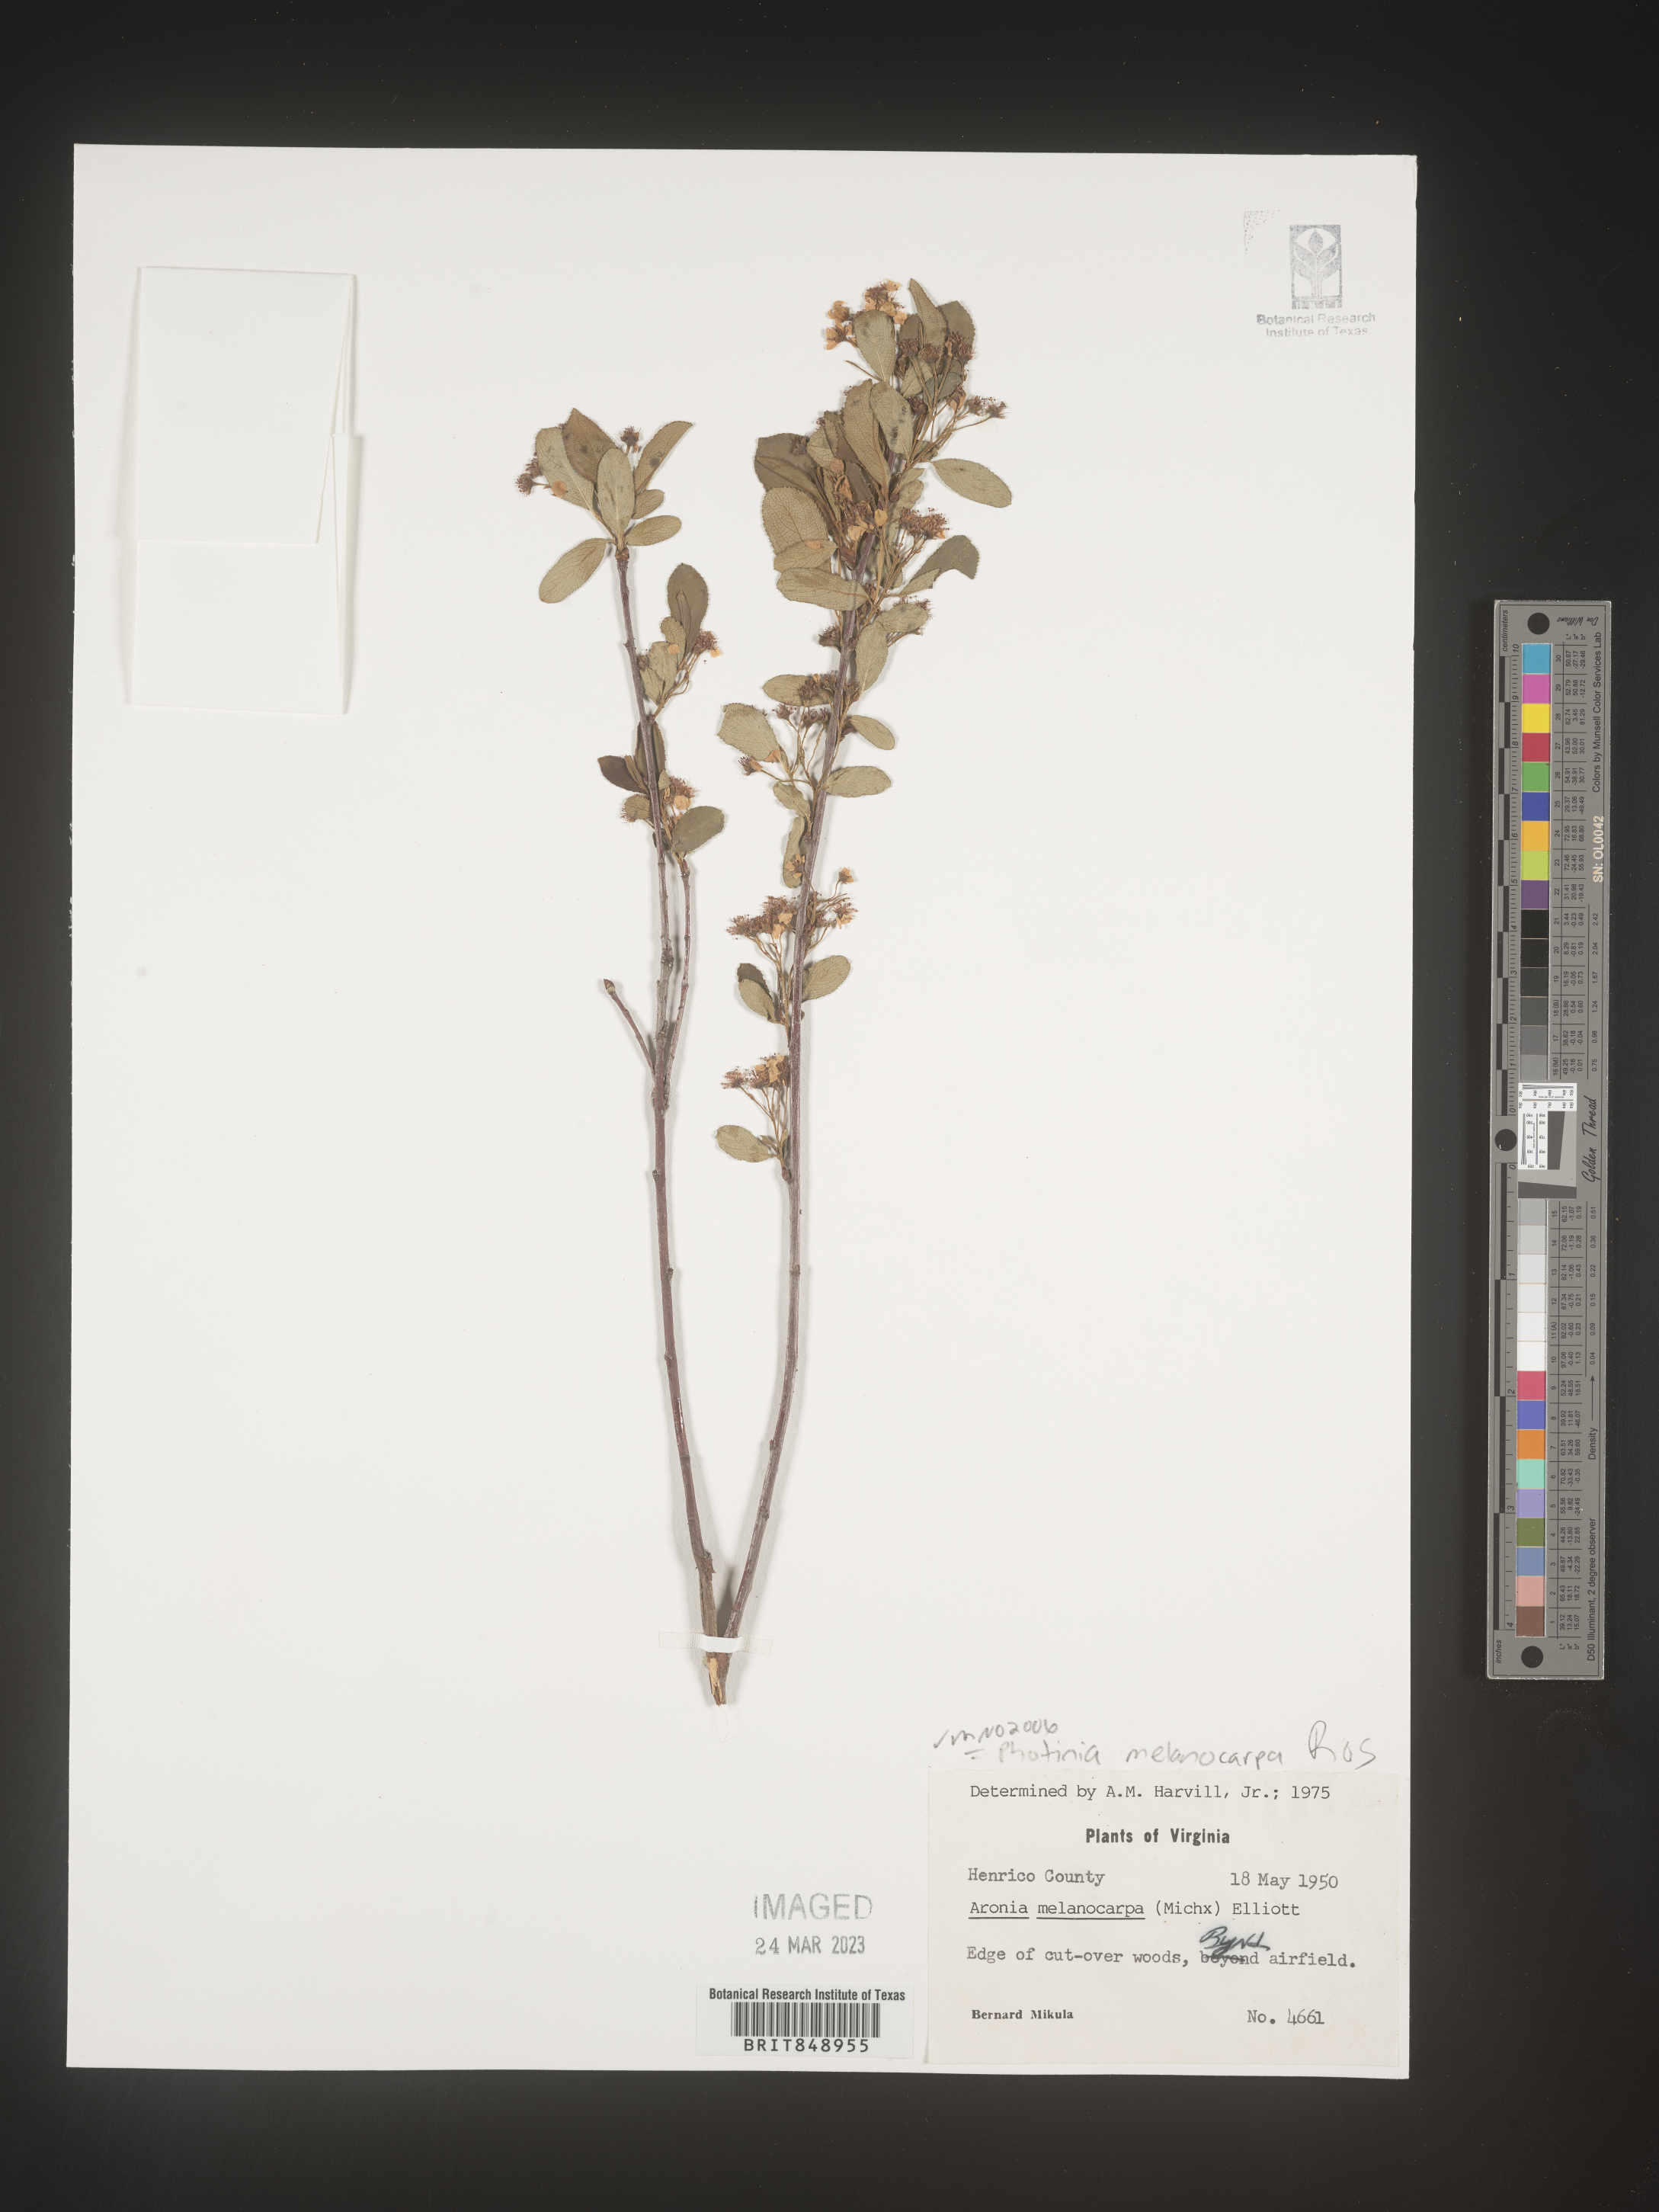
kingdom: Plantae
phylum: Tracheophyta
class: Magnoliopsida
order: Rosales
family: Rosaceae
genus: Photinia
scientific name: Photinia
